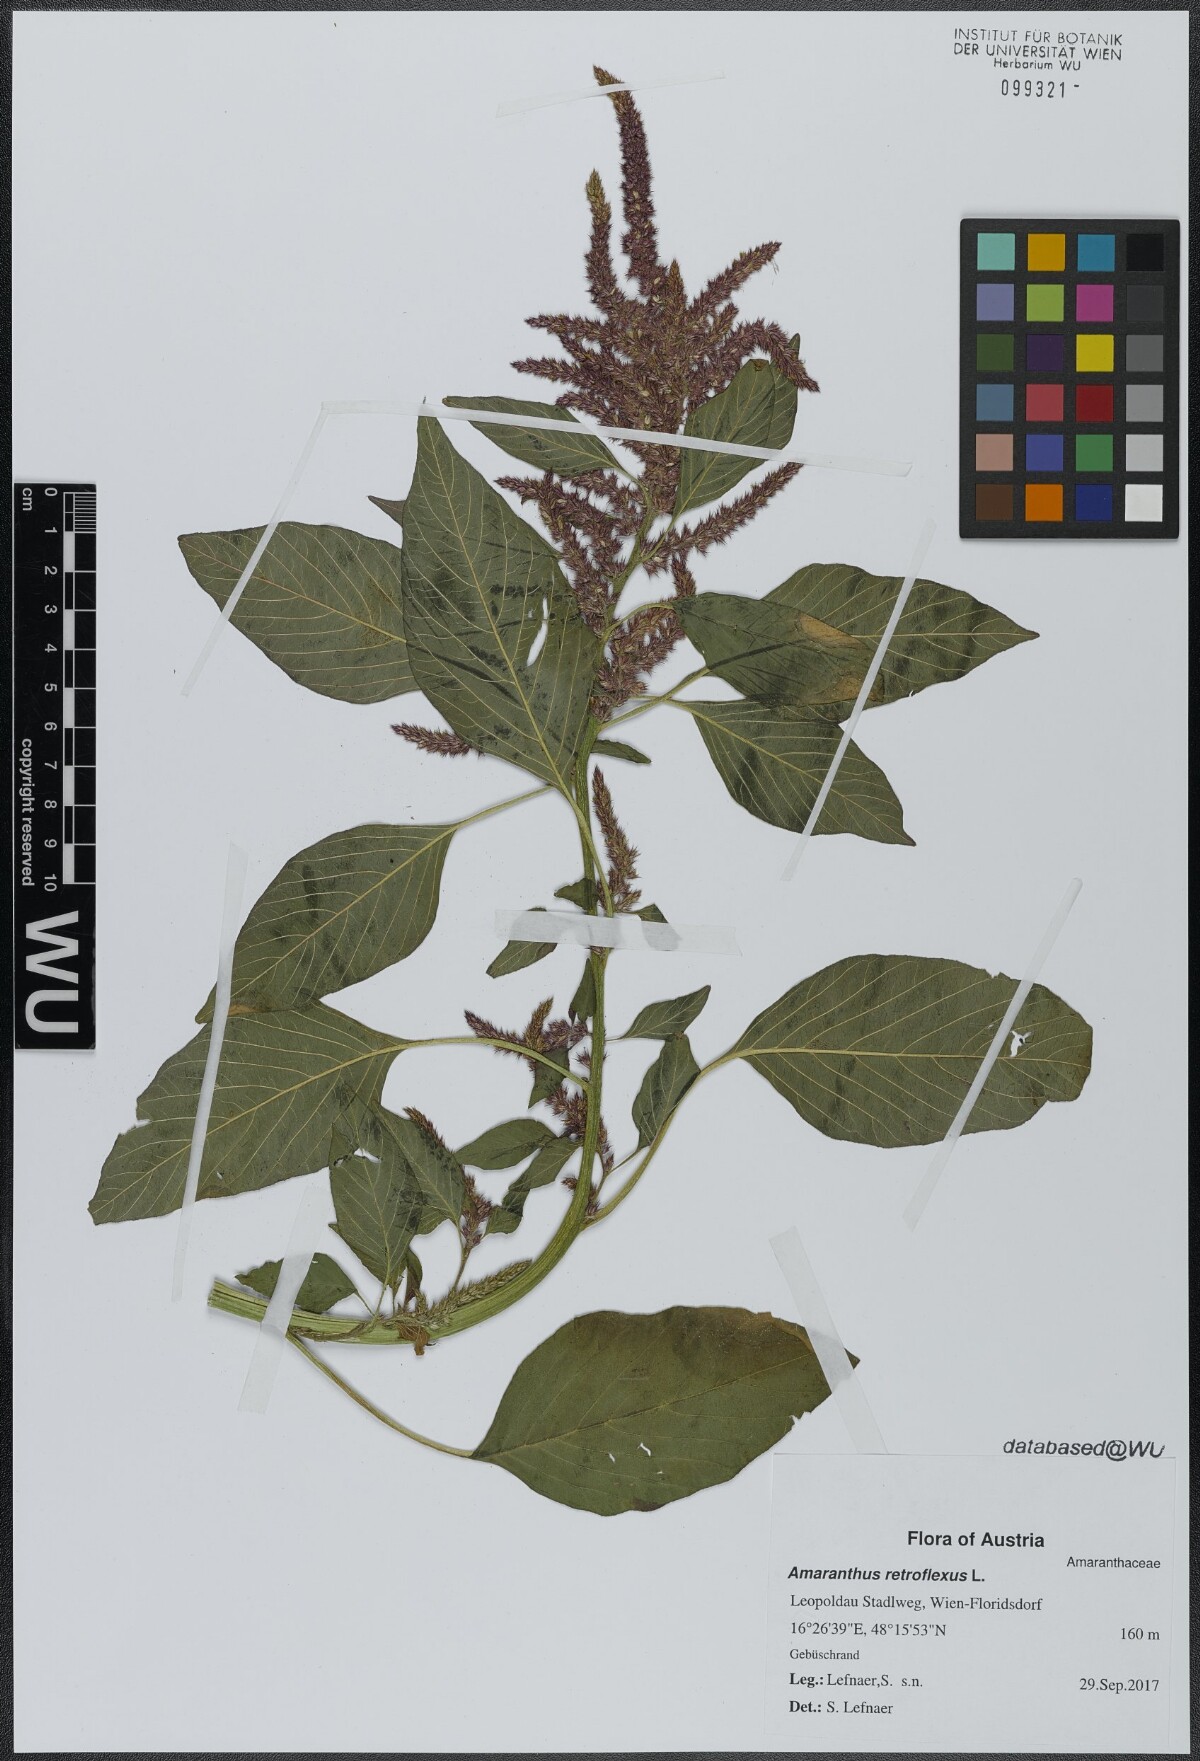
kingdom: Plantae
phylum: Tracheophyta
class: Magnoliopsida
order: Caryophyllales
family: Amaranthaceae
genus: Amaranthus
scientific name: Amaranthus retroflexus
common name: Redroot amaranth
